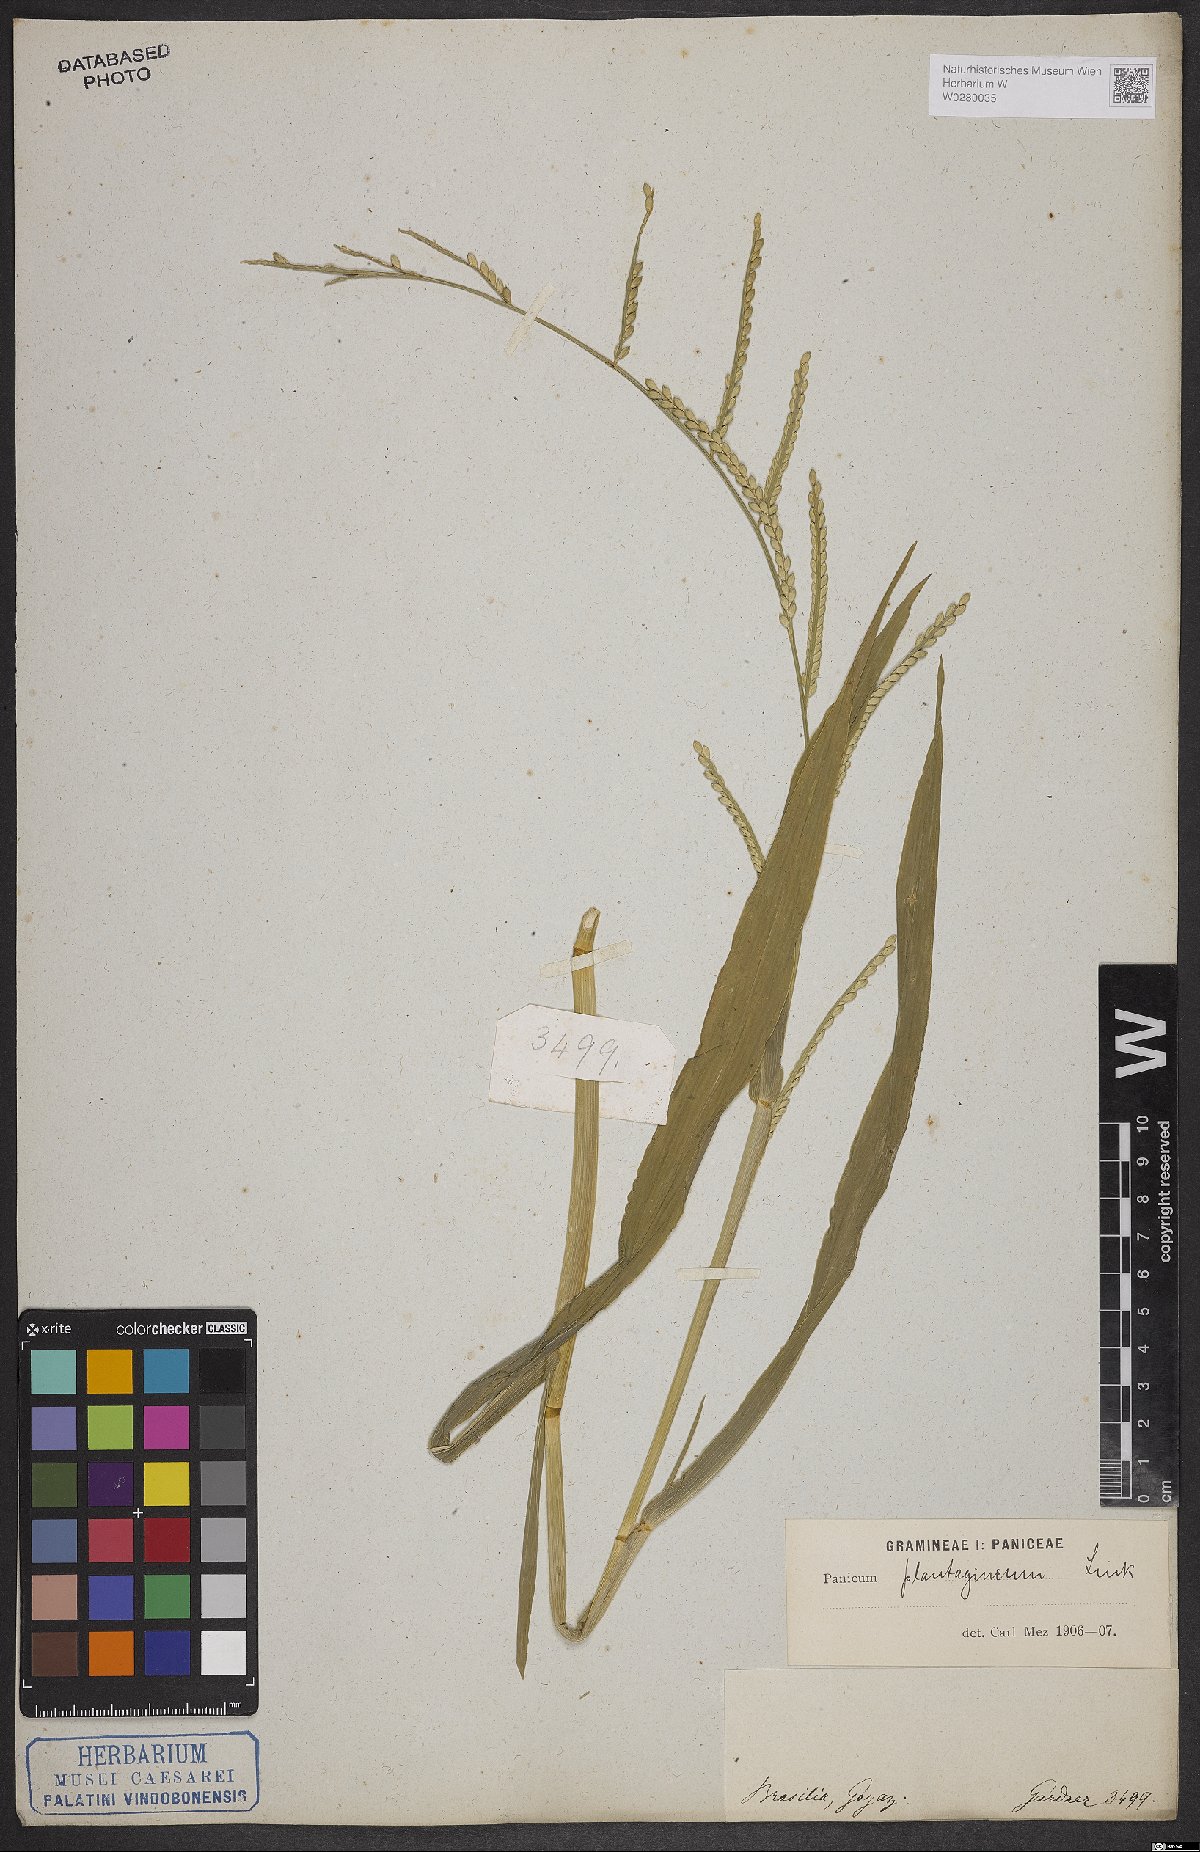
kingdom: Plantae
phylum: Tracheophyta
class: Liliopsida
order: Poales
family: Poaceae
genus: Urochloa
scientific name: Urochloa plantaginea
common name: Plantain signalgrass
